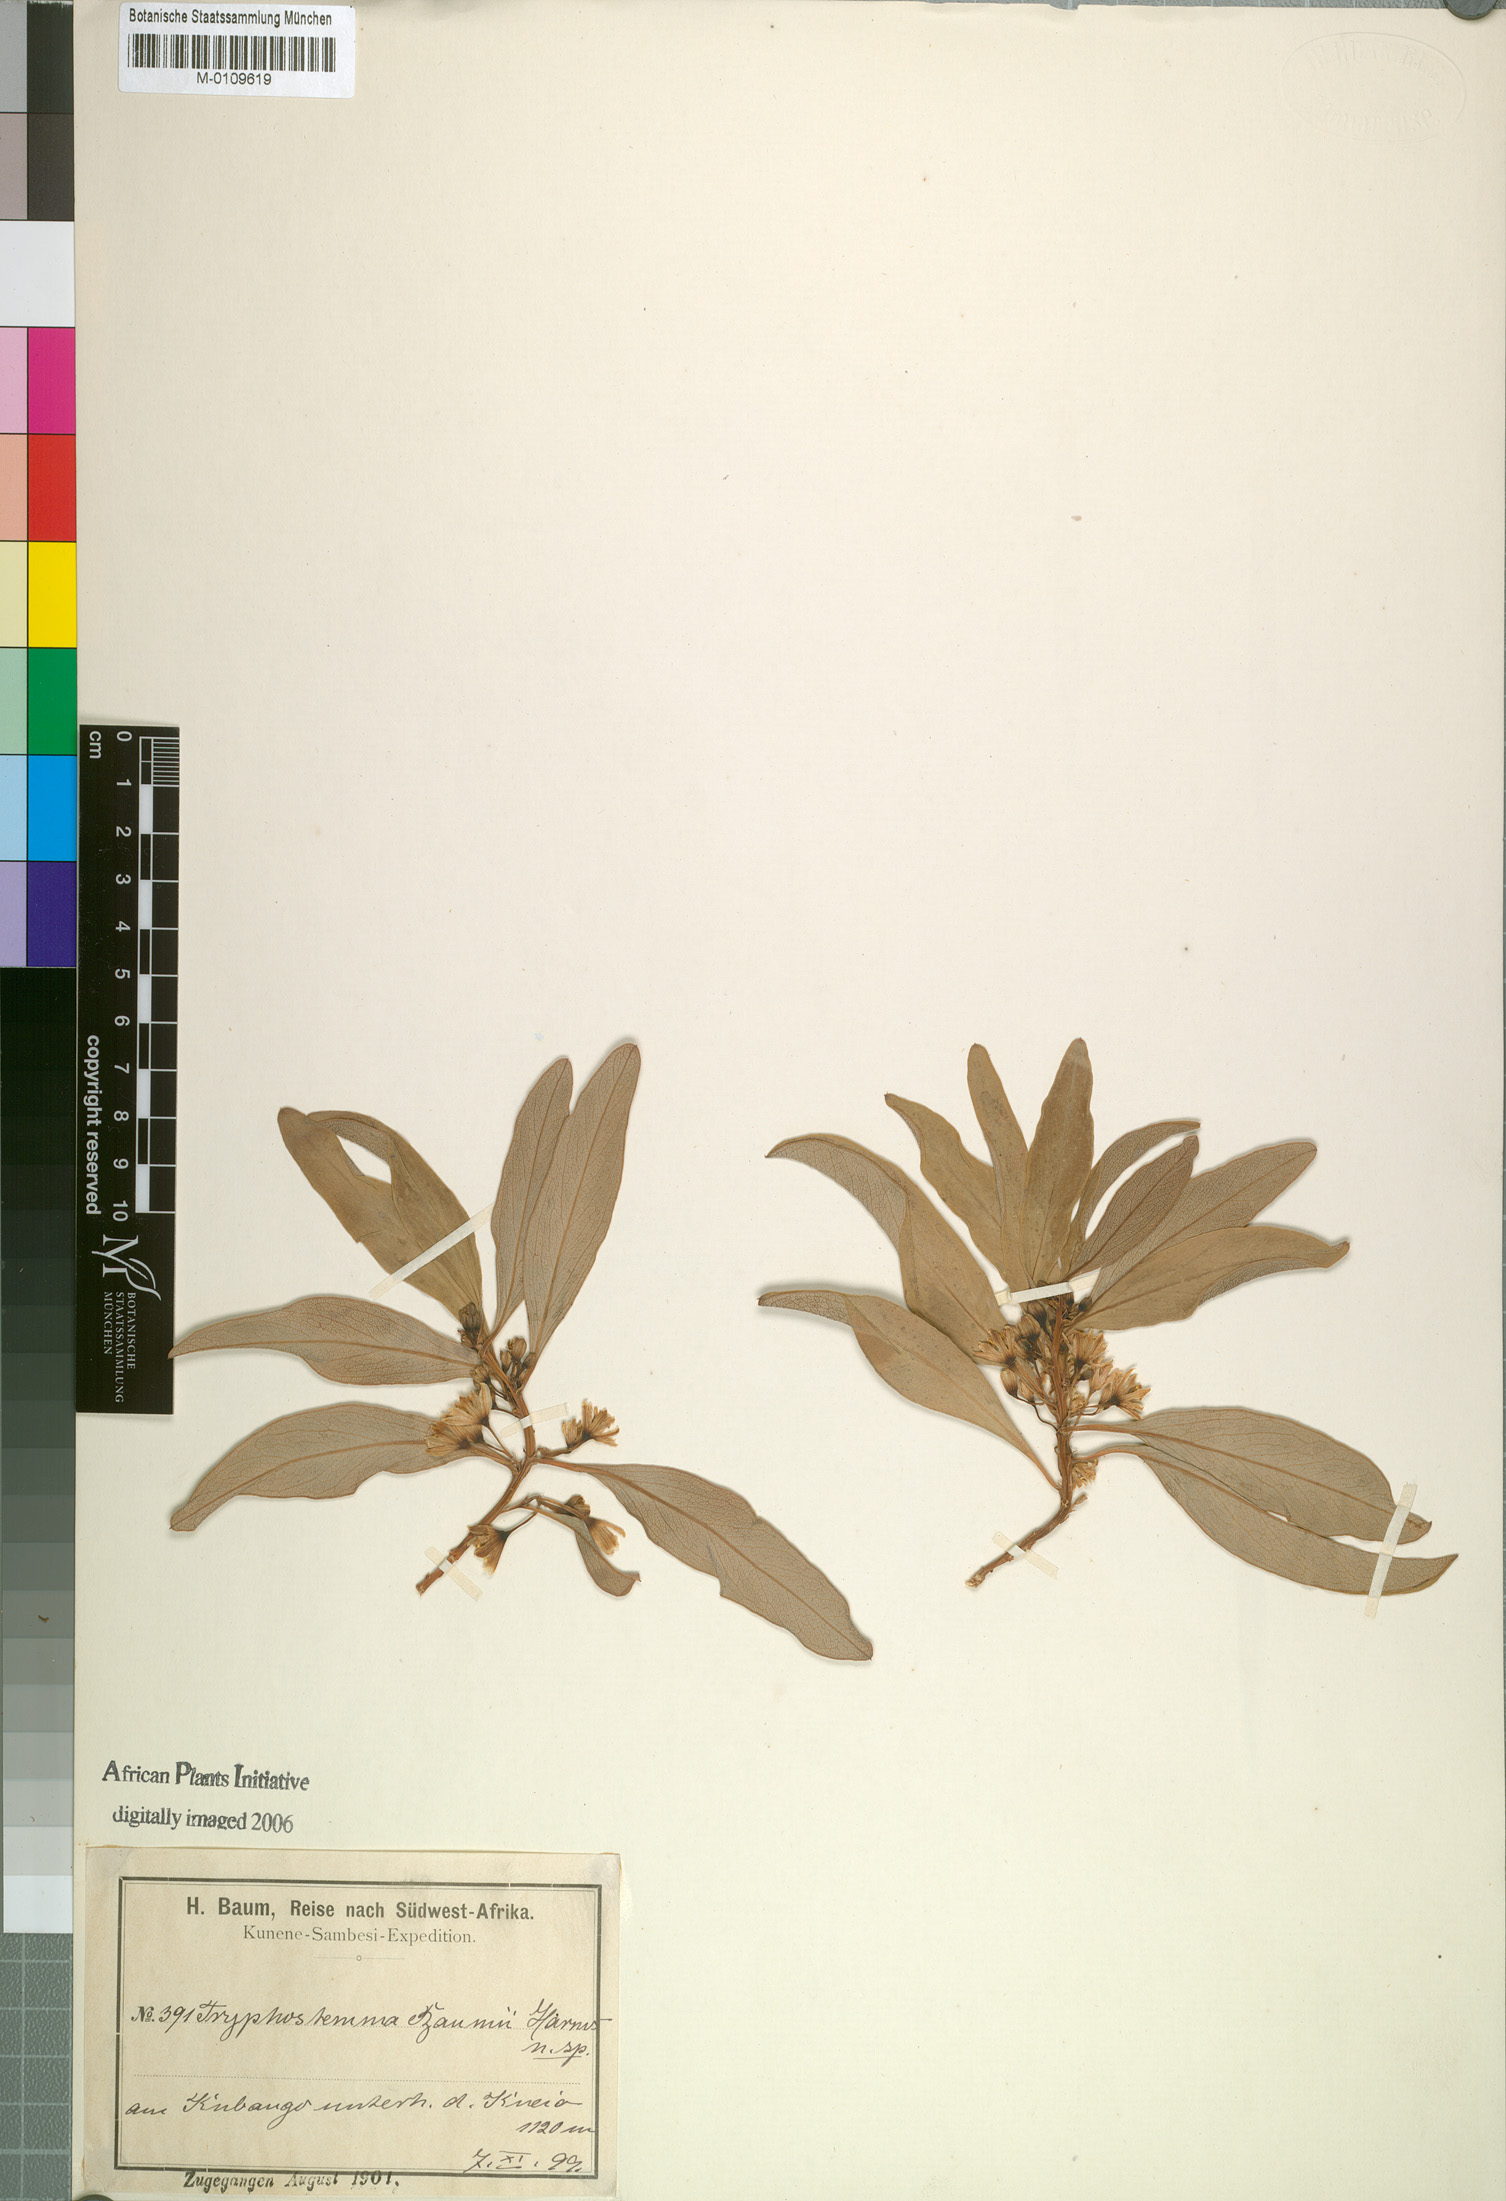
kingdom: Plantae
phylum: Tracheophyta
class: Magnoliopsida
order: Malpighiales
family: Passifloraceae
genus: Basananthe
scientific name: Basananthe baumii
